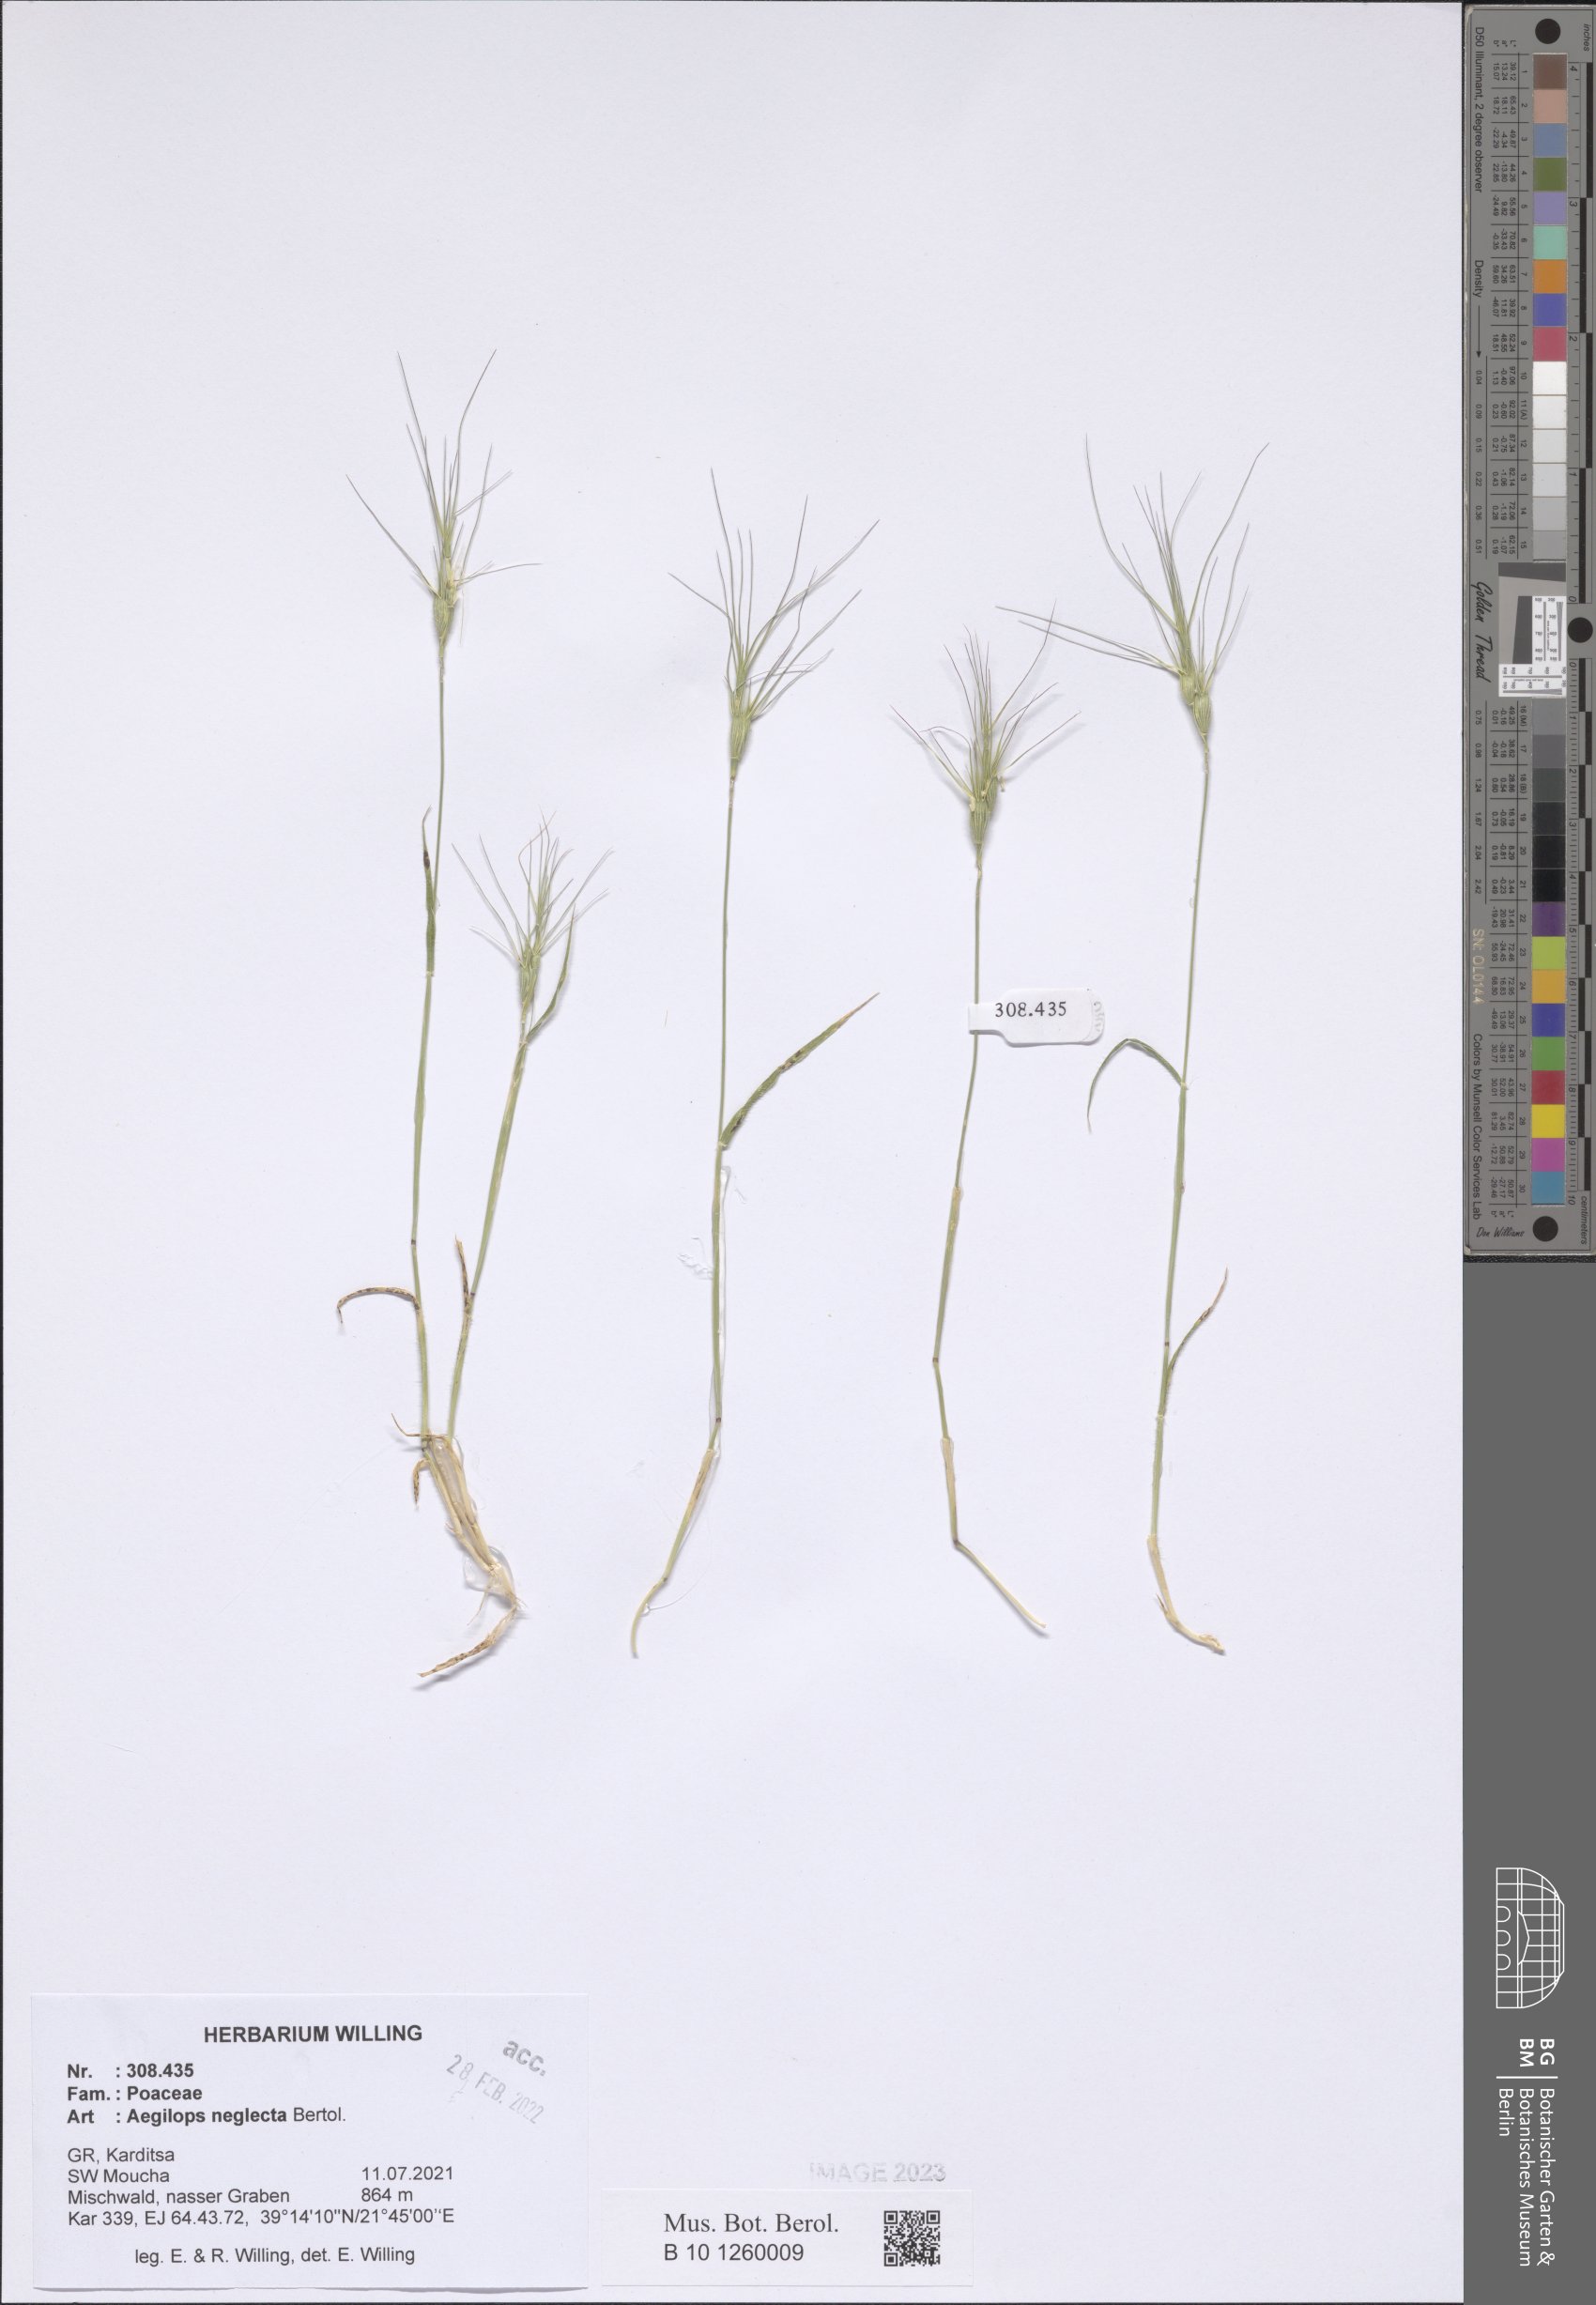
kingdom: Plantae
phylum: Tracheophyta
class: Liliopsida
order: Poales
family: Poaceae
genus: Aegilops
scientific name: Aegilops neglecta
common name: Three-awn goat grass
